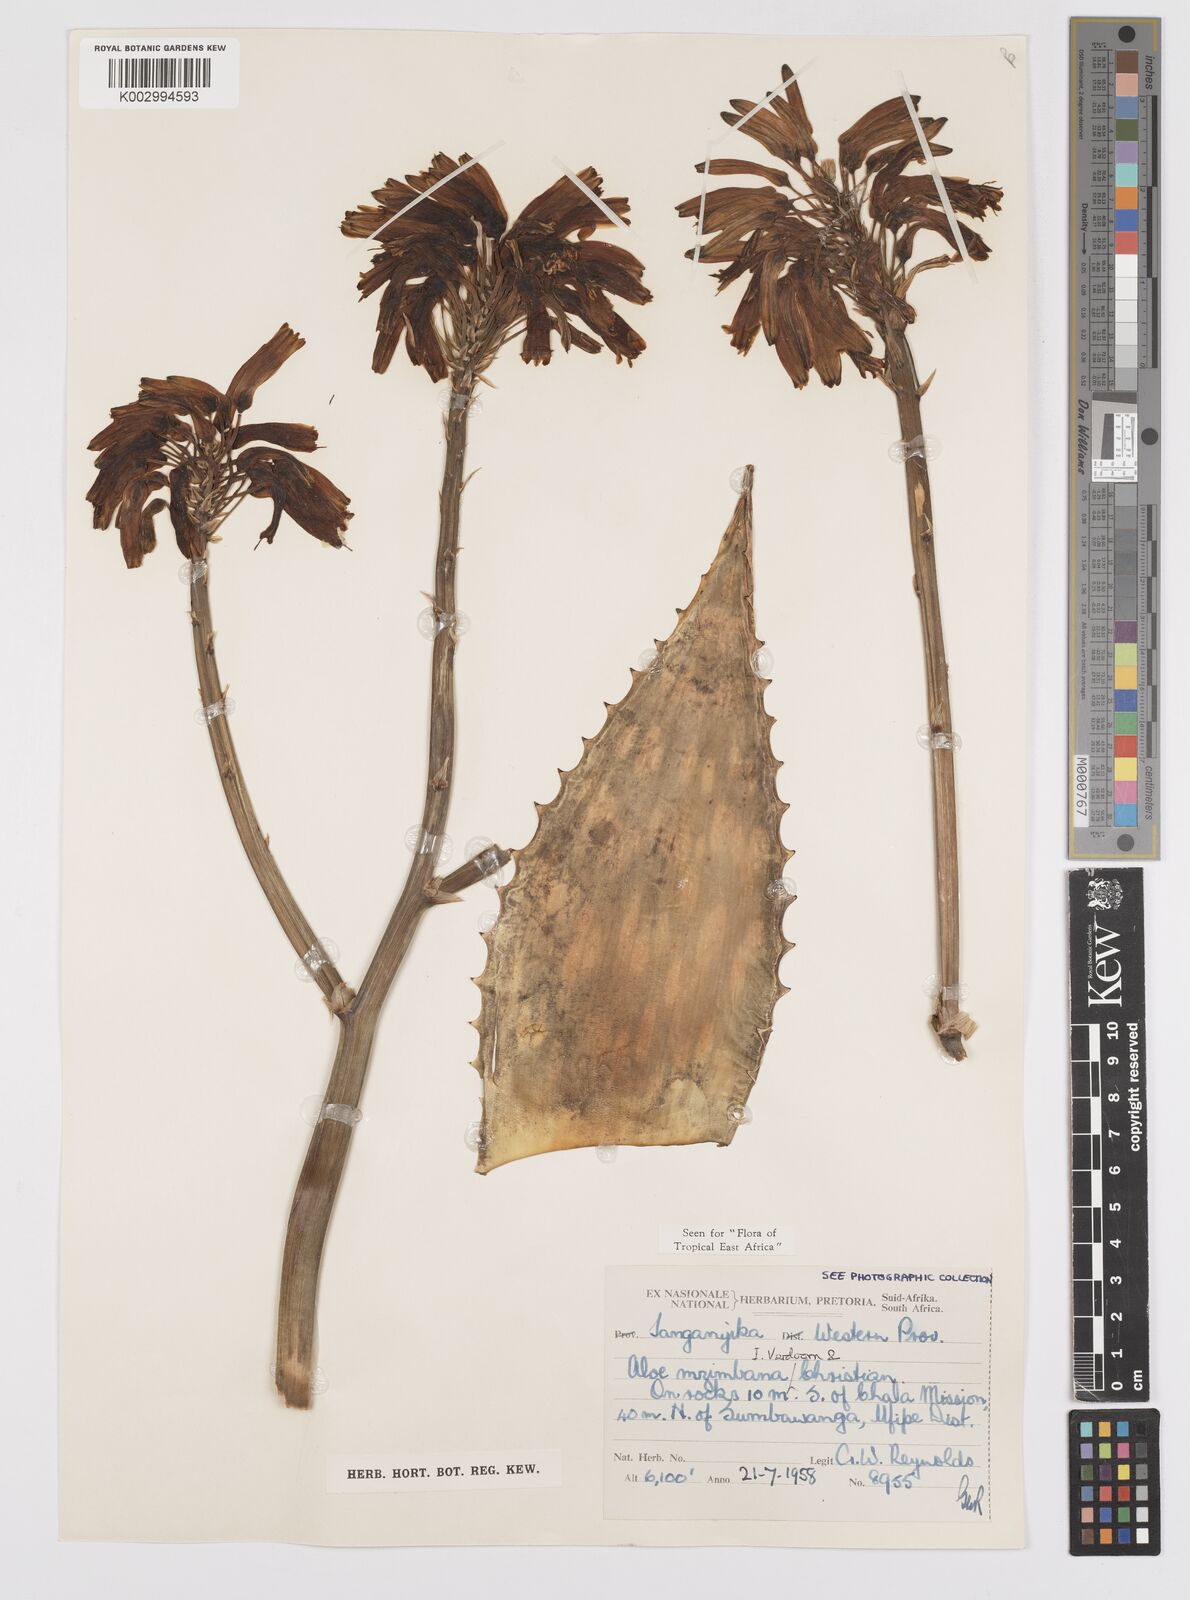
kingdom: Plantae
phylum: Tracheophyta
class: Liliopsida
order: Asparagales
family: Asphodelaceae
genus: Aloe
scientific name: Aloe mzimbana
